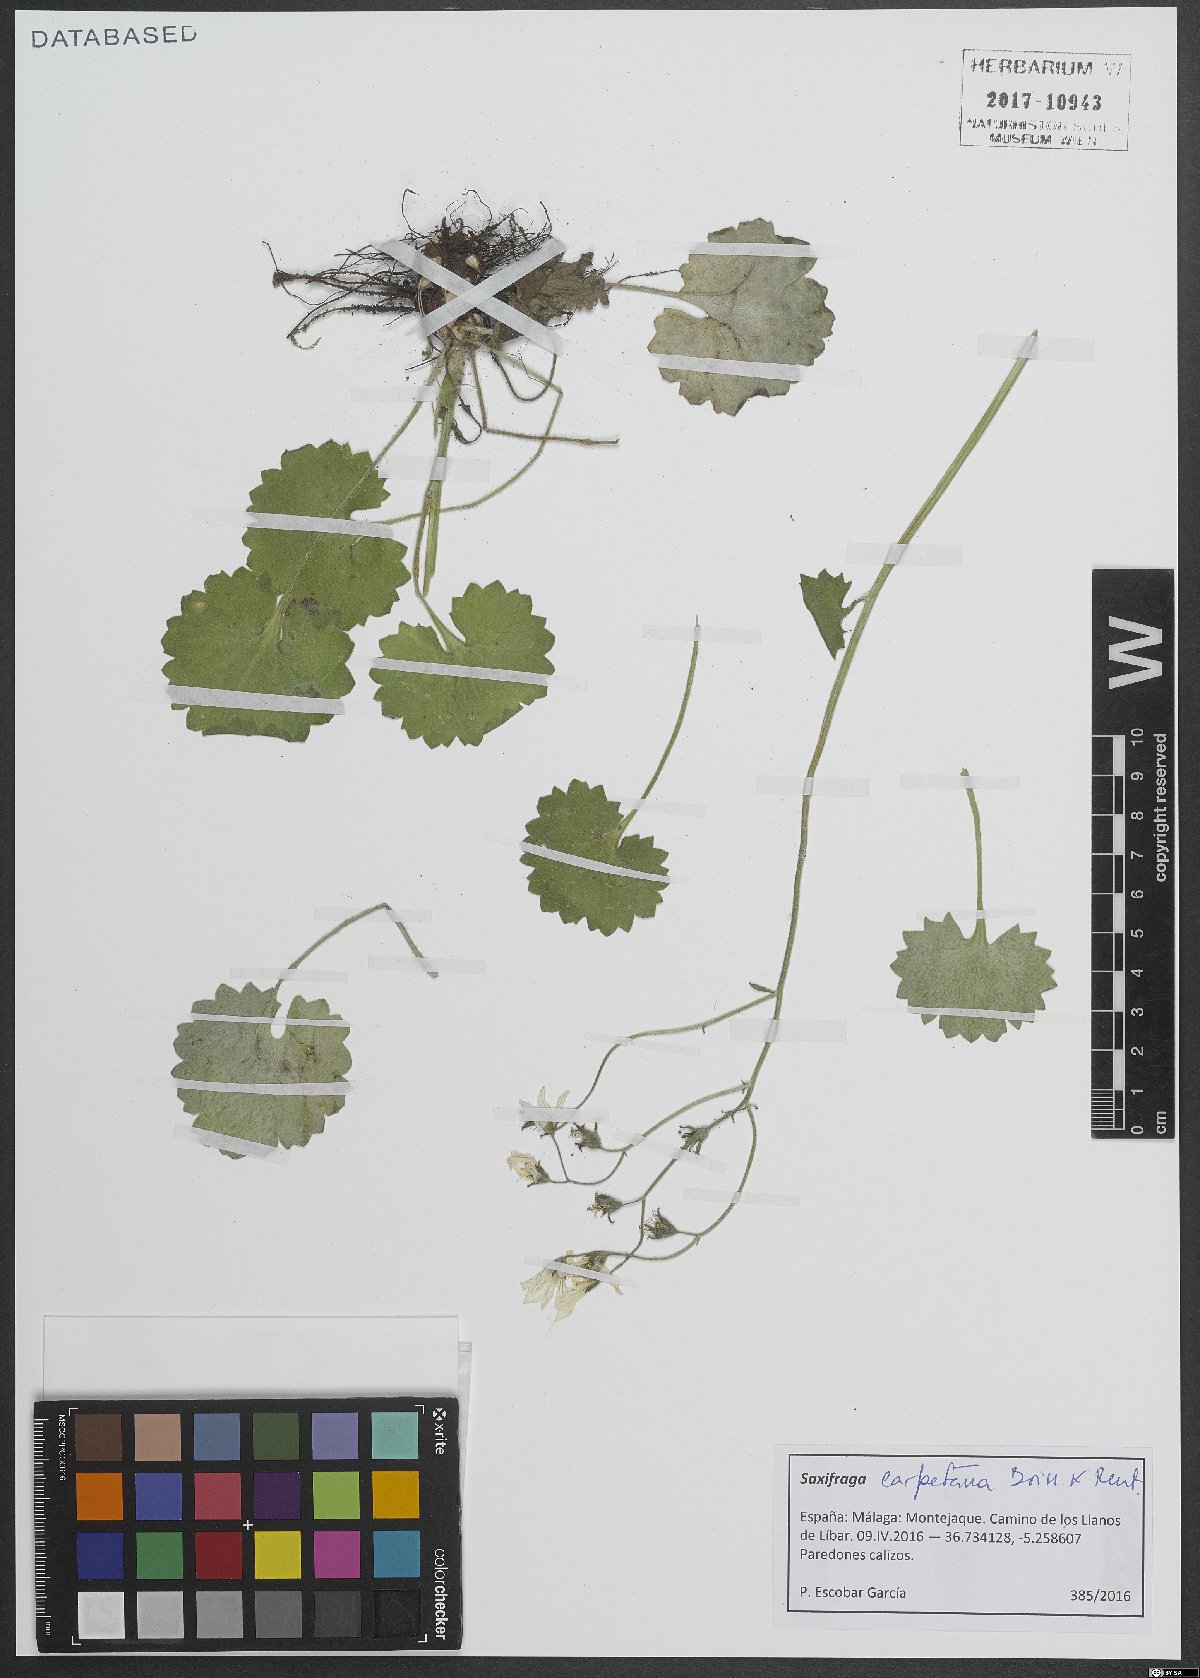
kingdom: Plantae
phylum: Tracheophyta
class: Magnoliopsida
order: Saxifragales
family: Saxifragaceae
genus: Saxifraga
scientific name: Saxifraga carpetana
